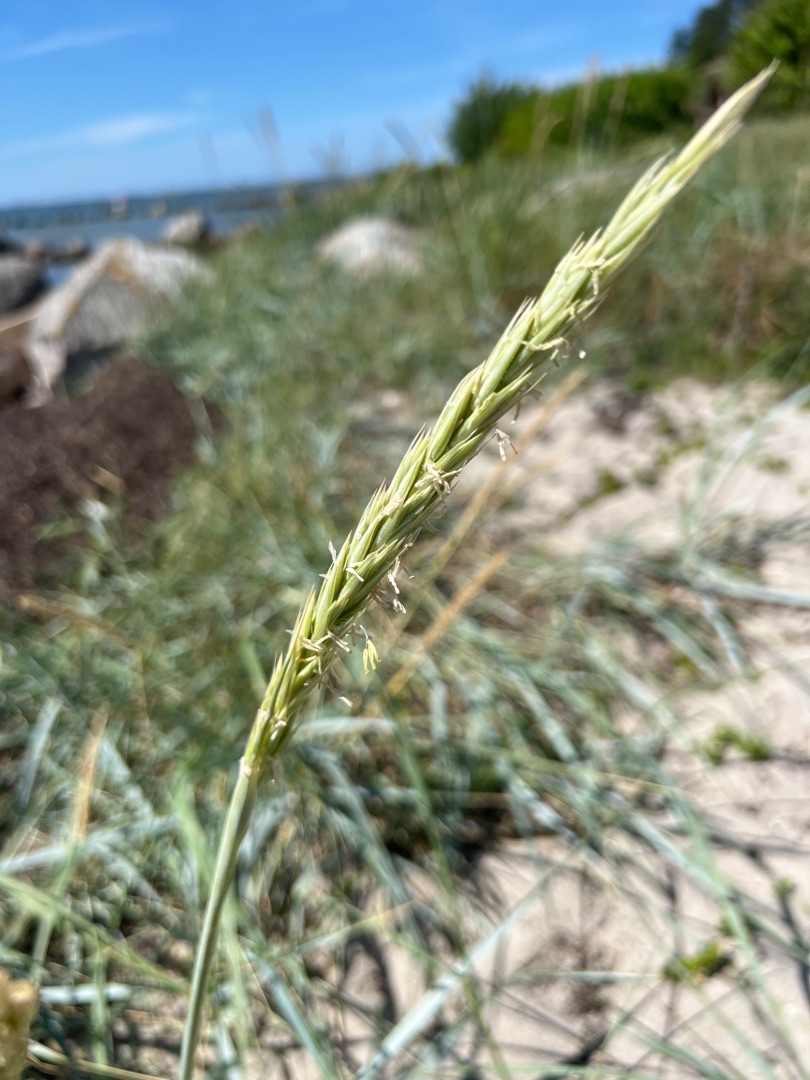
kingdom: Plantae
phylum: Tracheophyta
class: Liliopsida
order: Poales
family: Poaceae
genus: Leymus
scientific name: Leymus arenarius
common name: Marehalm
